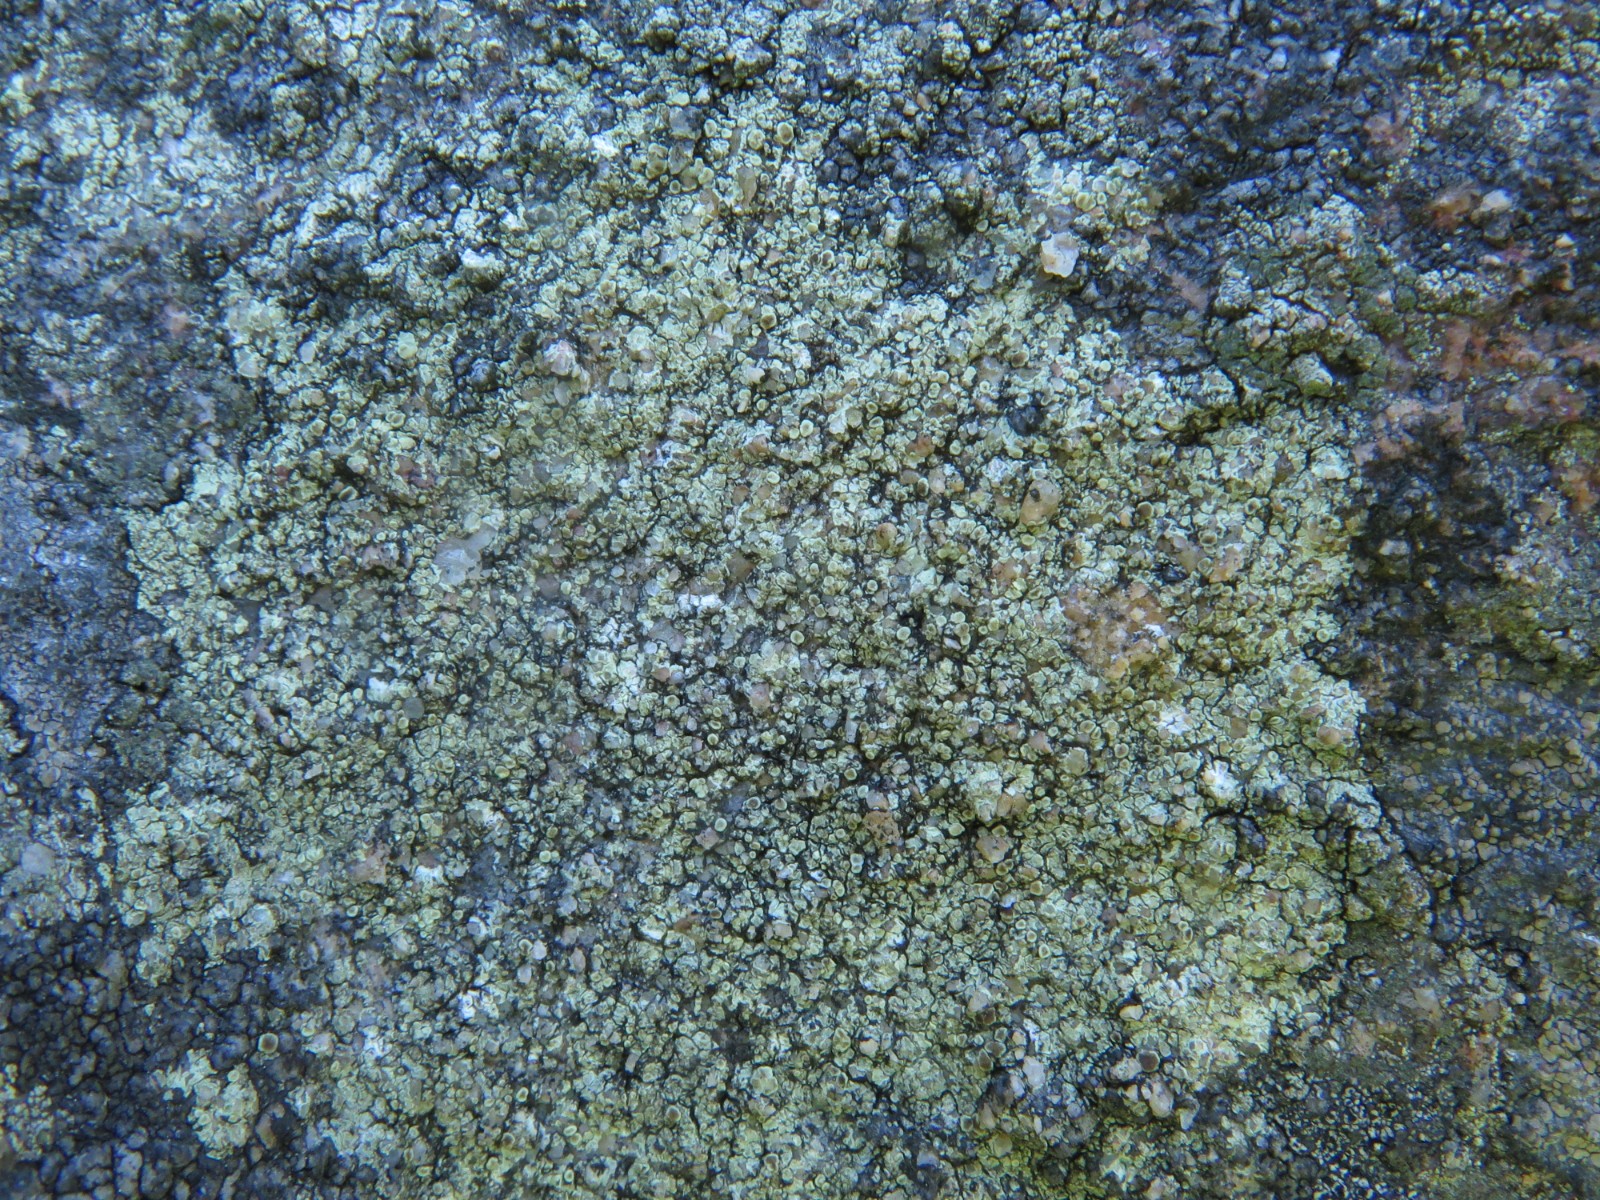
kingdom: Fungi
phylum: Ascomycota
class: Lecanoromycetes
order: Lecanorales
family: Lecanoraceae
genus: Lecanora
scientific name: Lecanora polytropa
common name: bleggrøn kantskivelav
